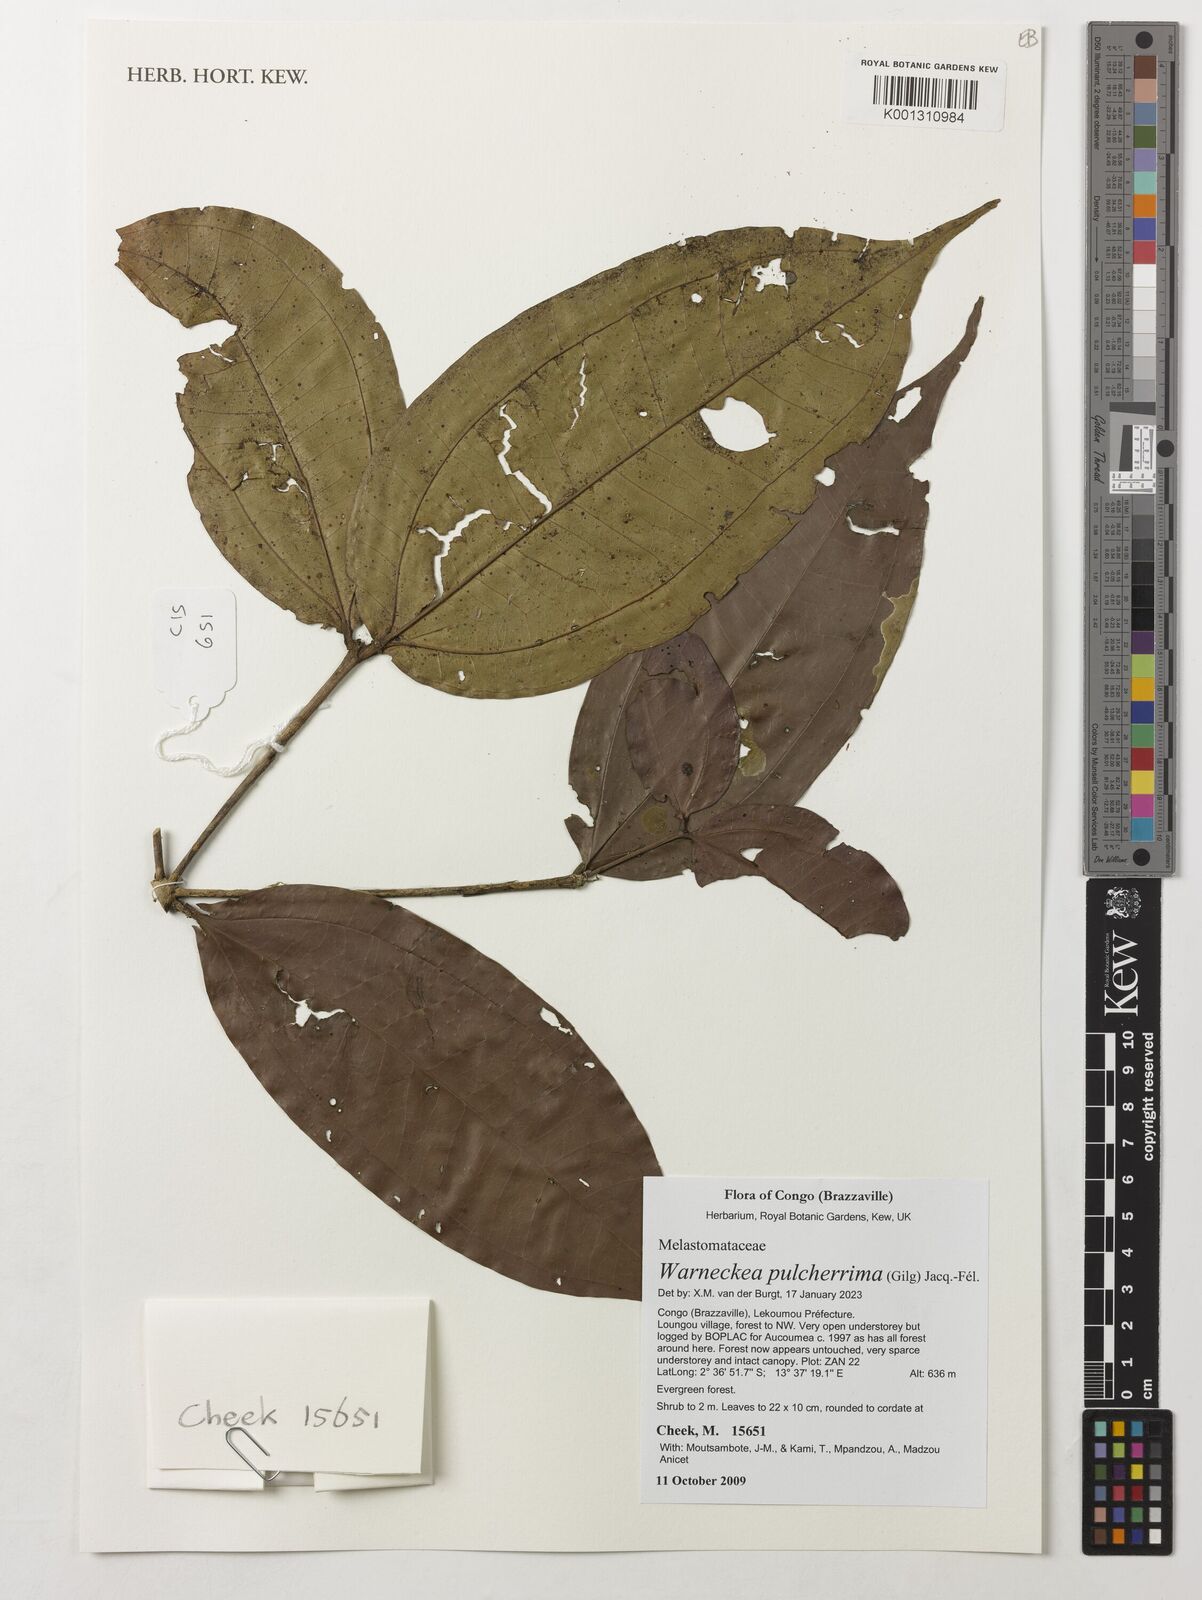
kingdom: Plantae
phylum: Tracheophyta
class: Magnoliopsida
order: Myrtales
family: Melastomataceae
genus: Warneckea
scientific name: Warneckea pulcherrima
